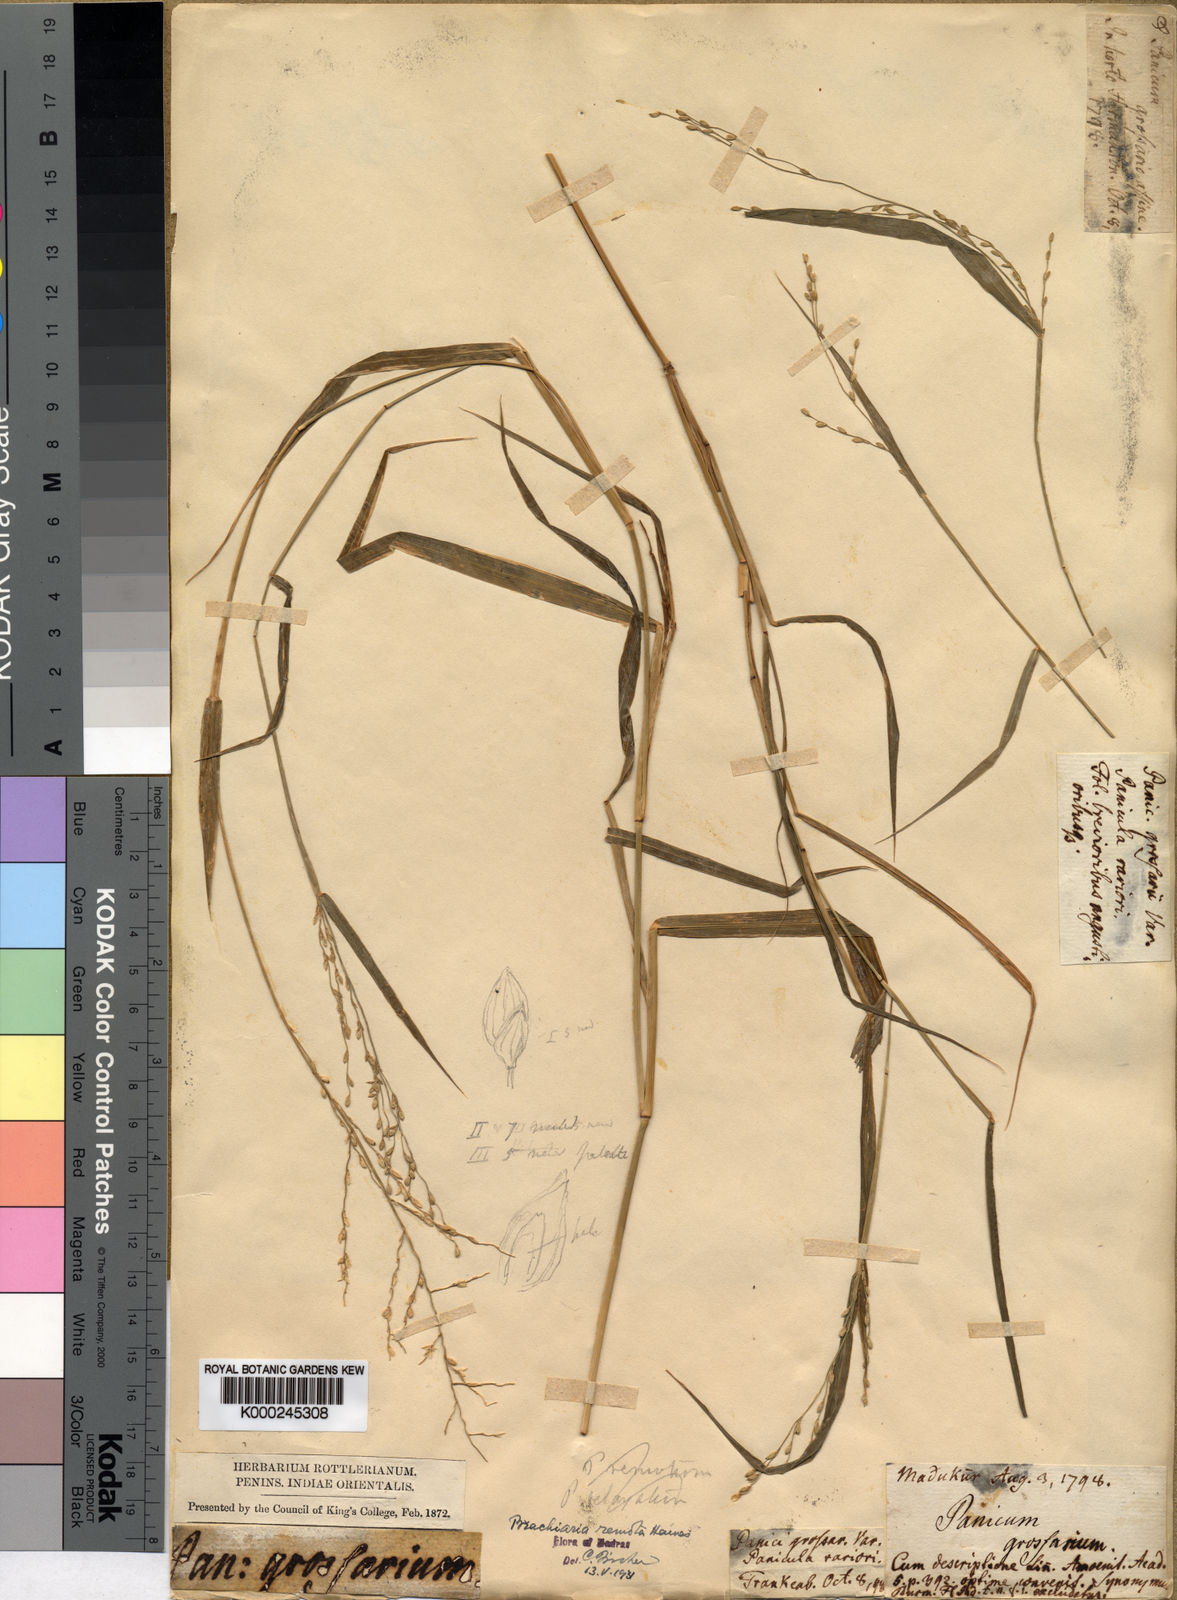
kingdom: Plantae
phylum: Tracheophyta
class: Liliopsida
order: Poales
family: Poaceae
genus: Urochloa
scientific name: Urochloa Brachiaria remota
